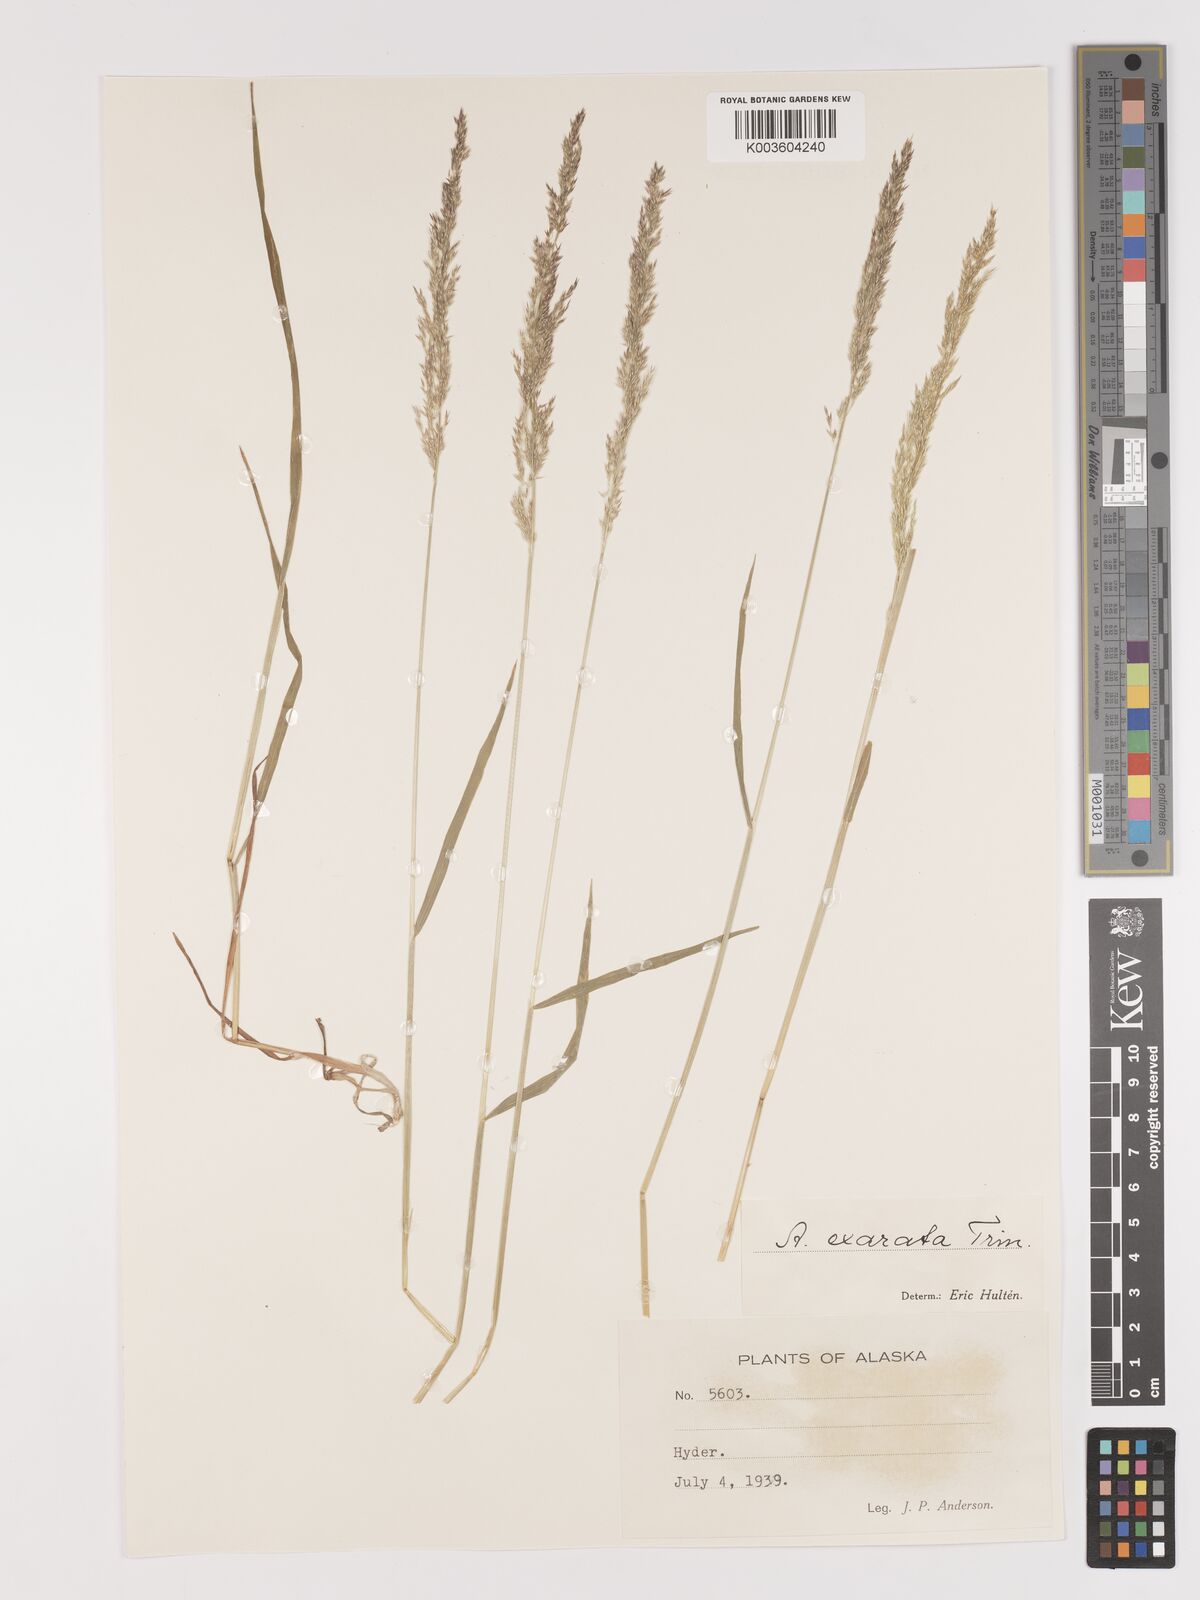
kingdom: Plantae
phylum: Tracheophyta
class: Liliopsida
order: Poales
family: Poaceae
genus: Agrostis
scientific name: Agrostis exarata
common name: Spike bent
